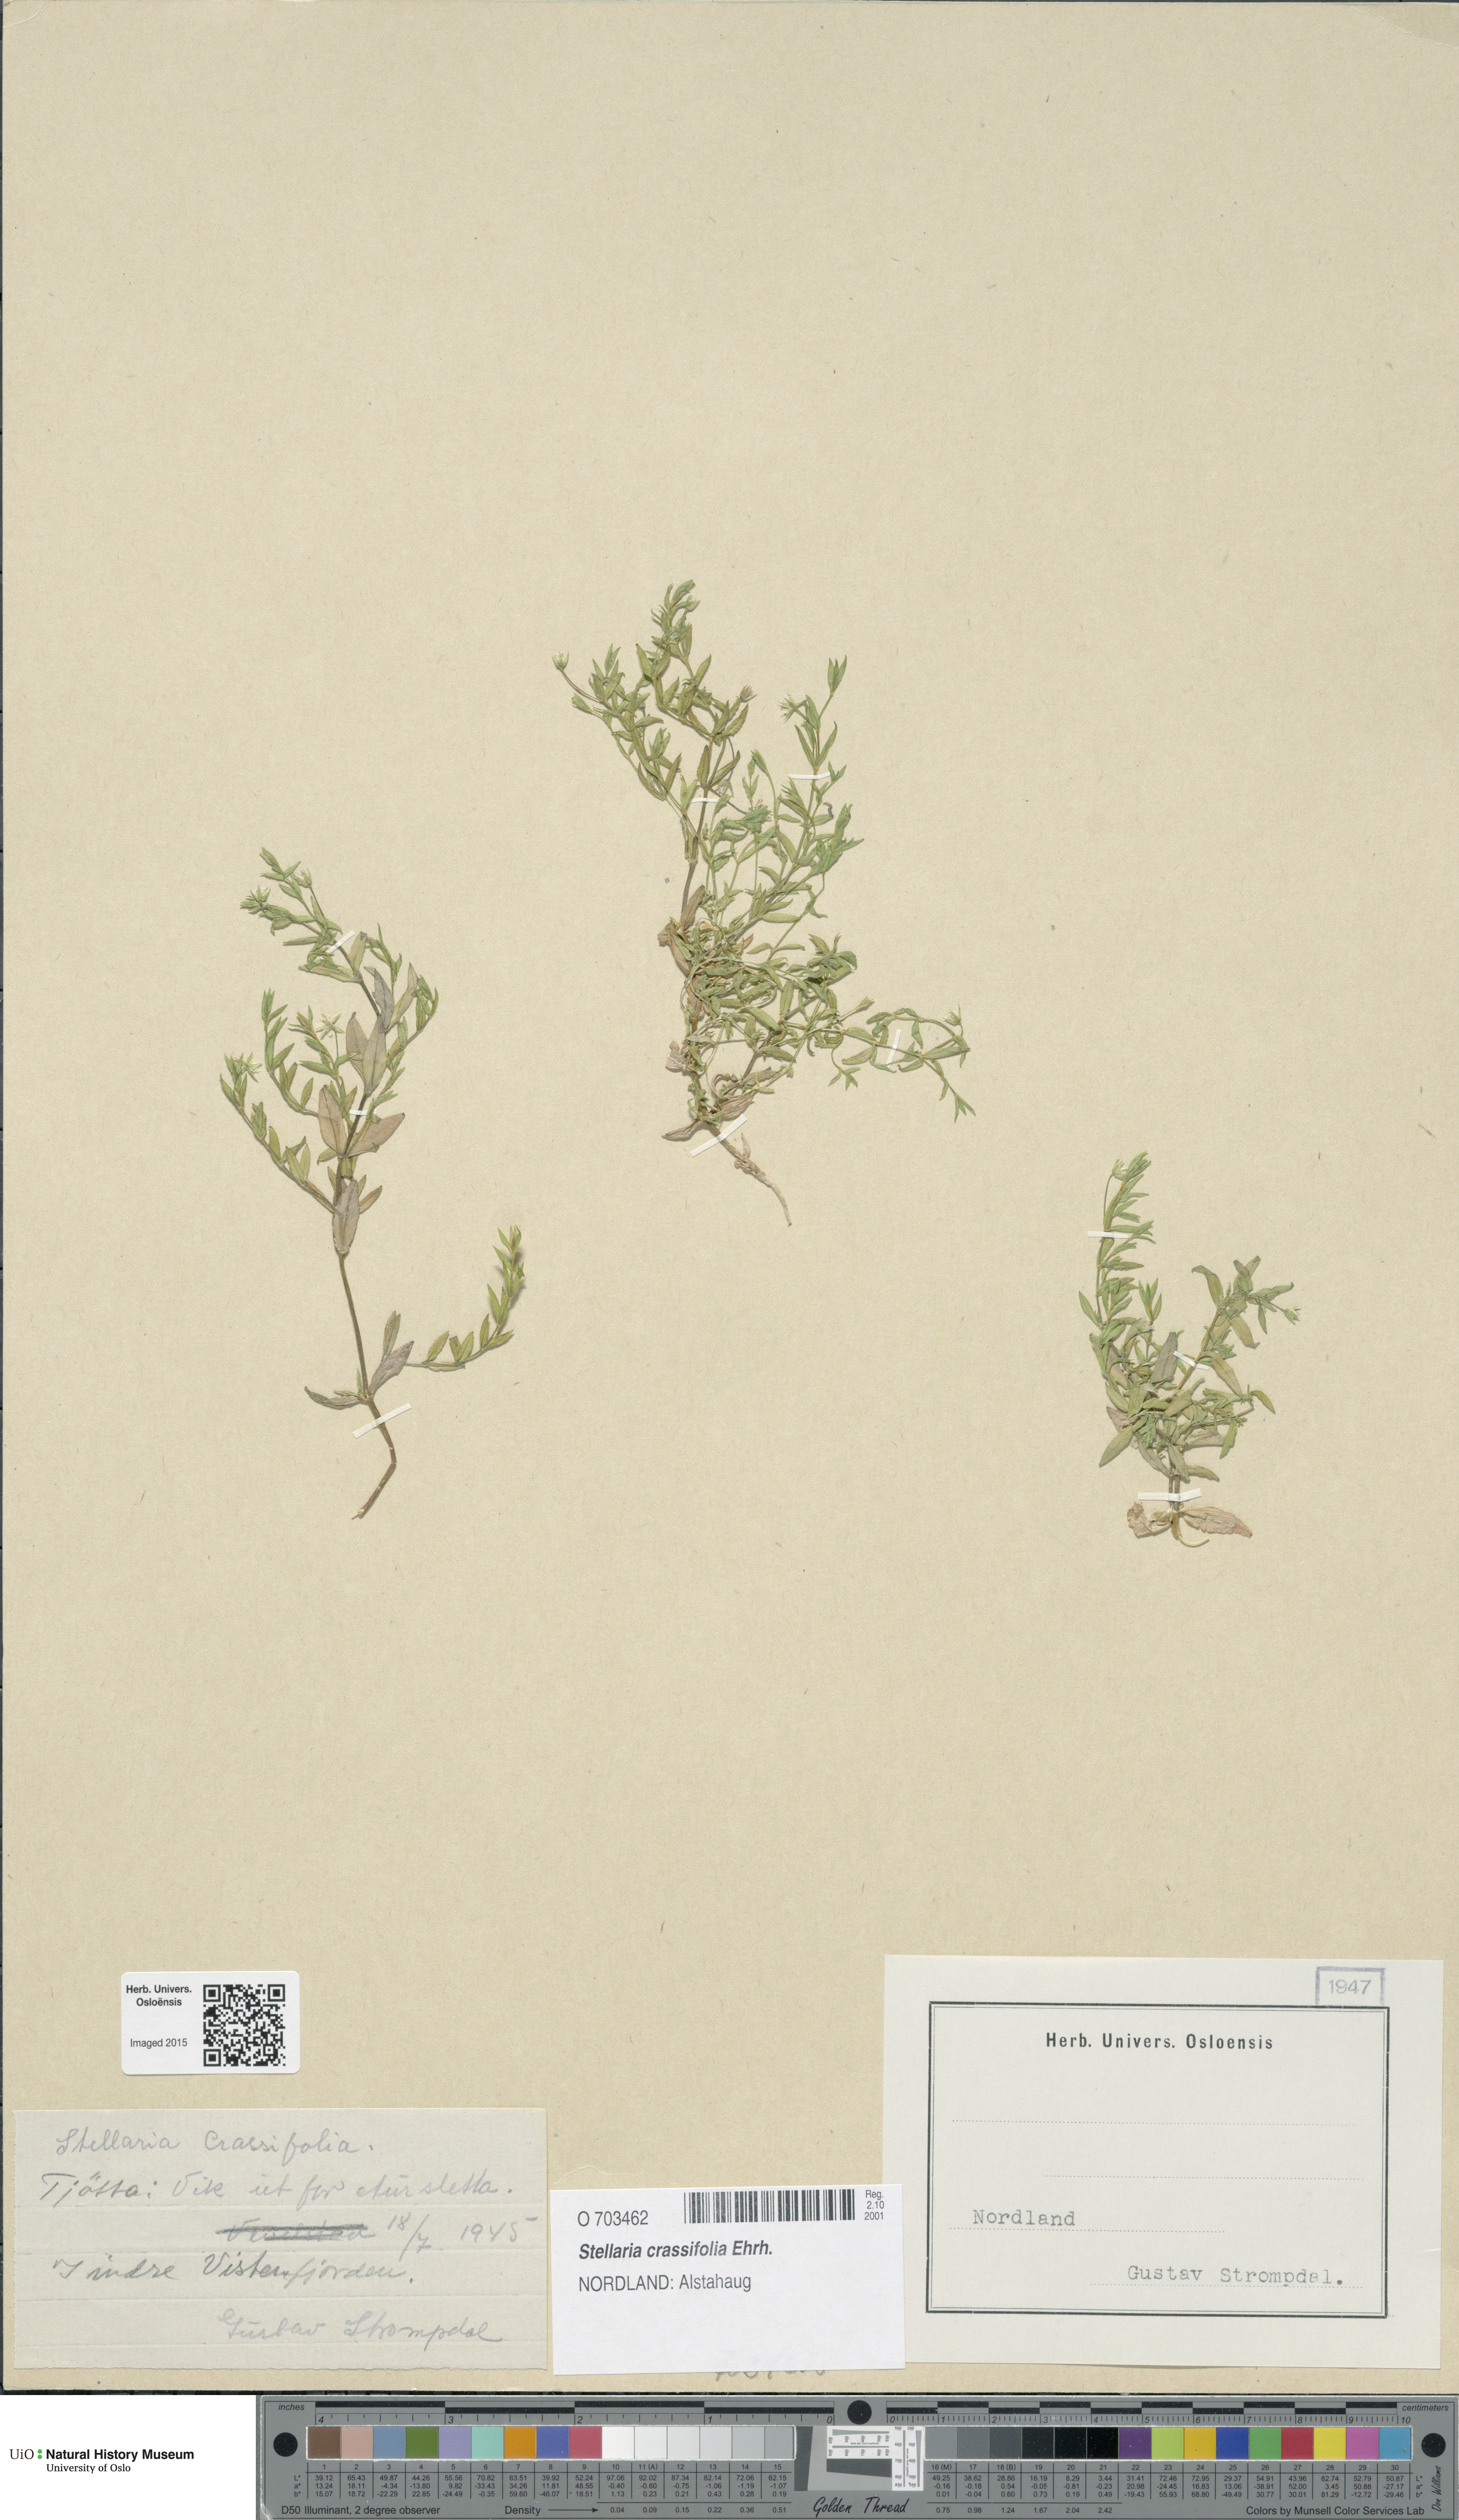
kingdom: Plantae
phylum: Tracheophyta
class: Magnoliopsida
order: Caryophyllales
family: Caryophyllaceae
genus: Stellaria
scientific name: Stellaria crassifolia
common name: Fleshy starwort
